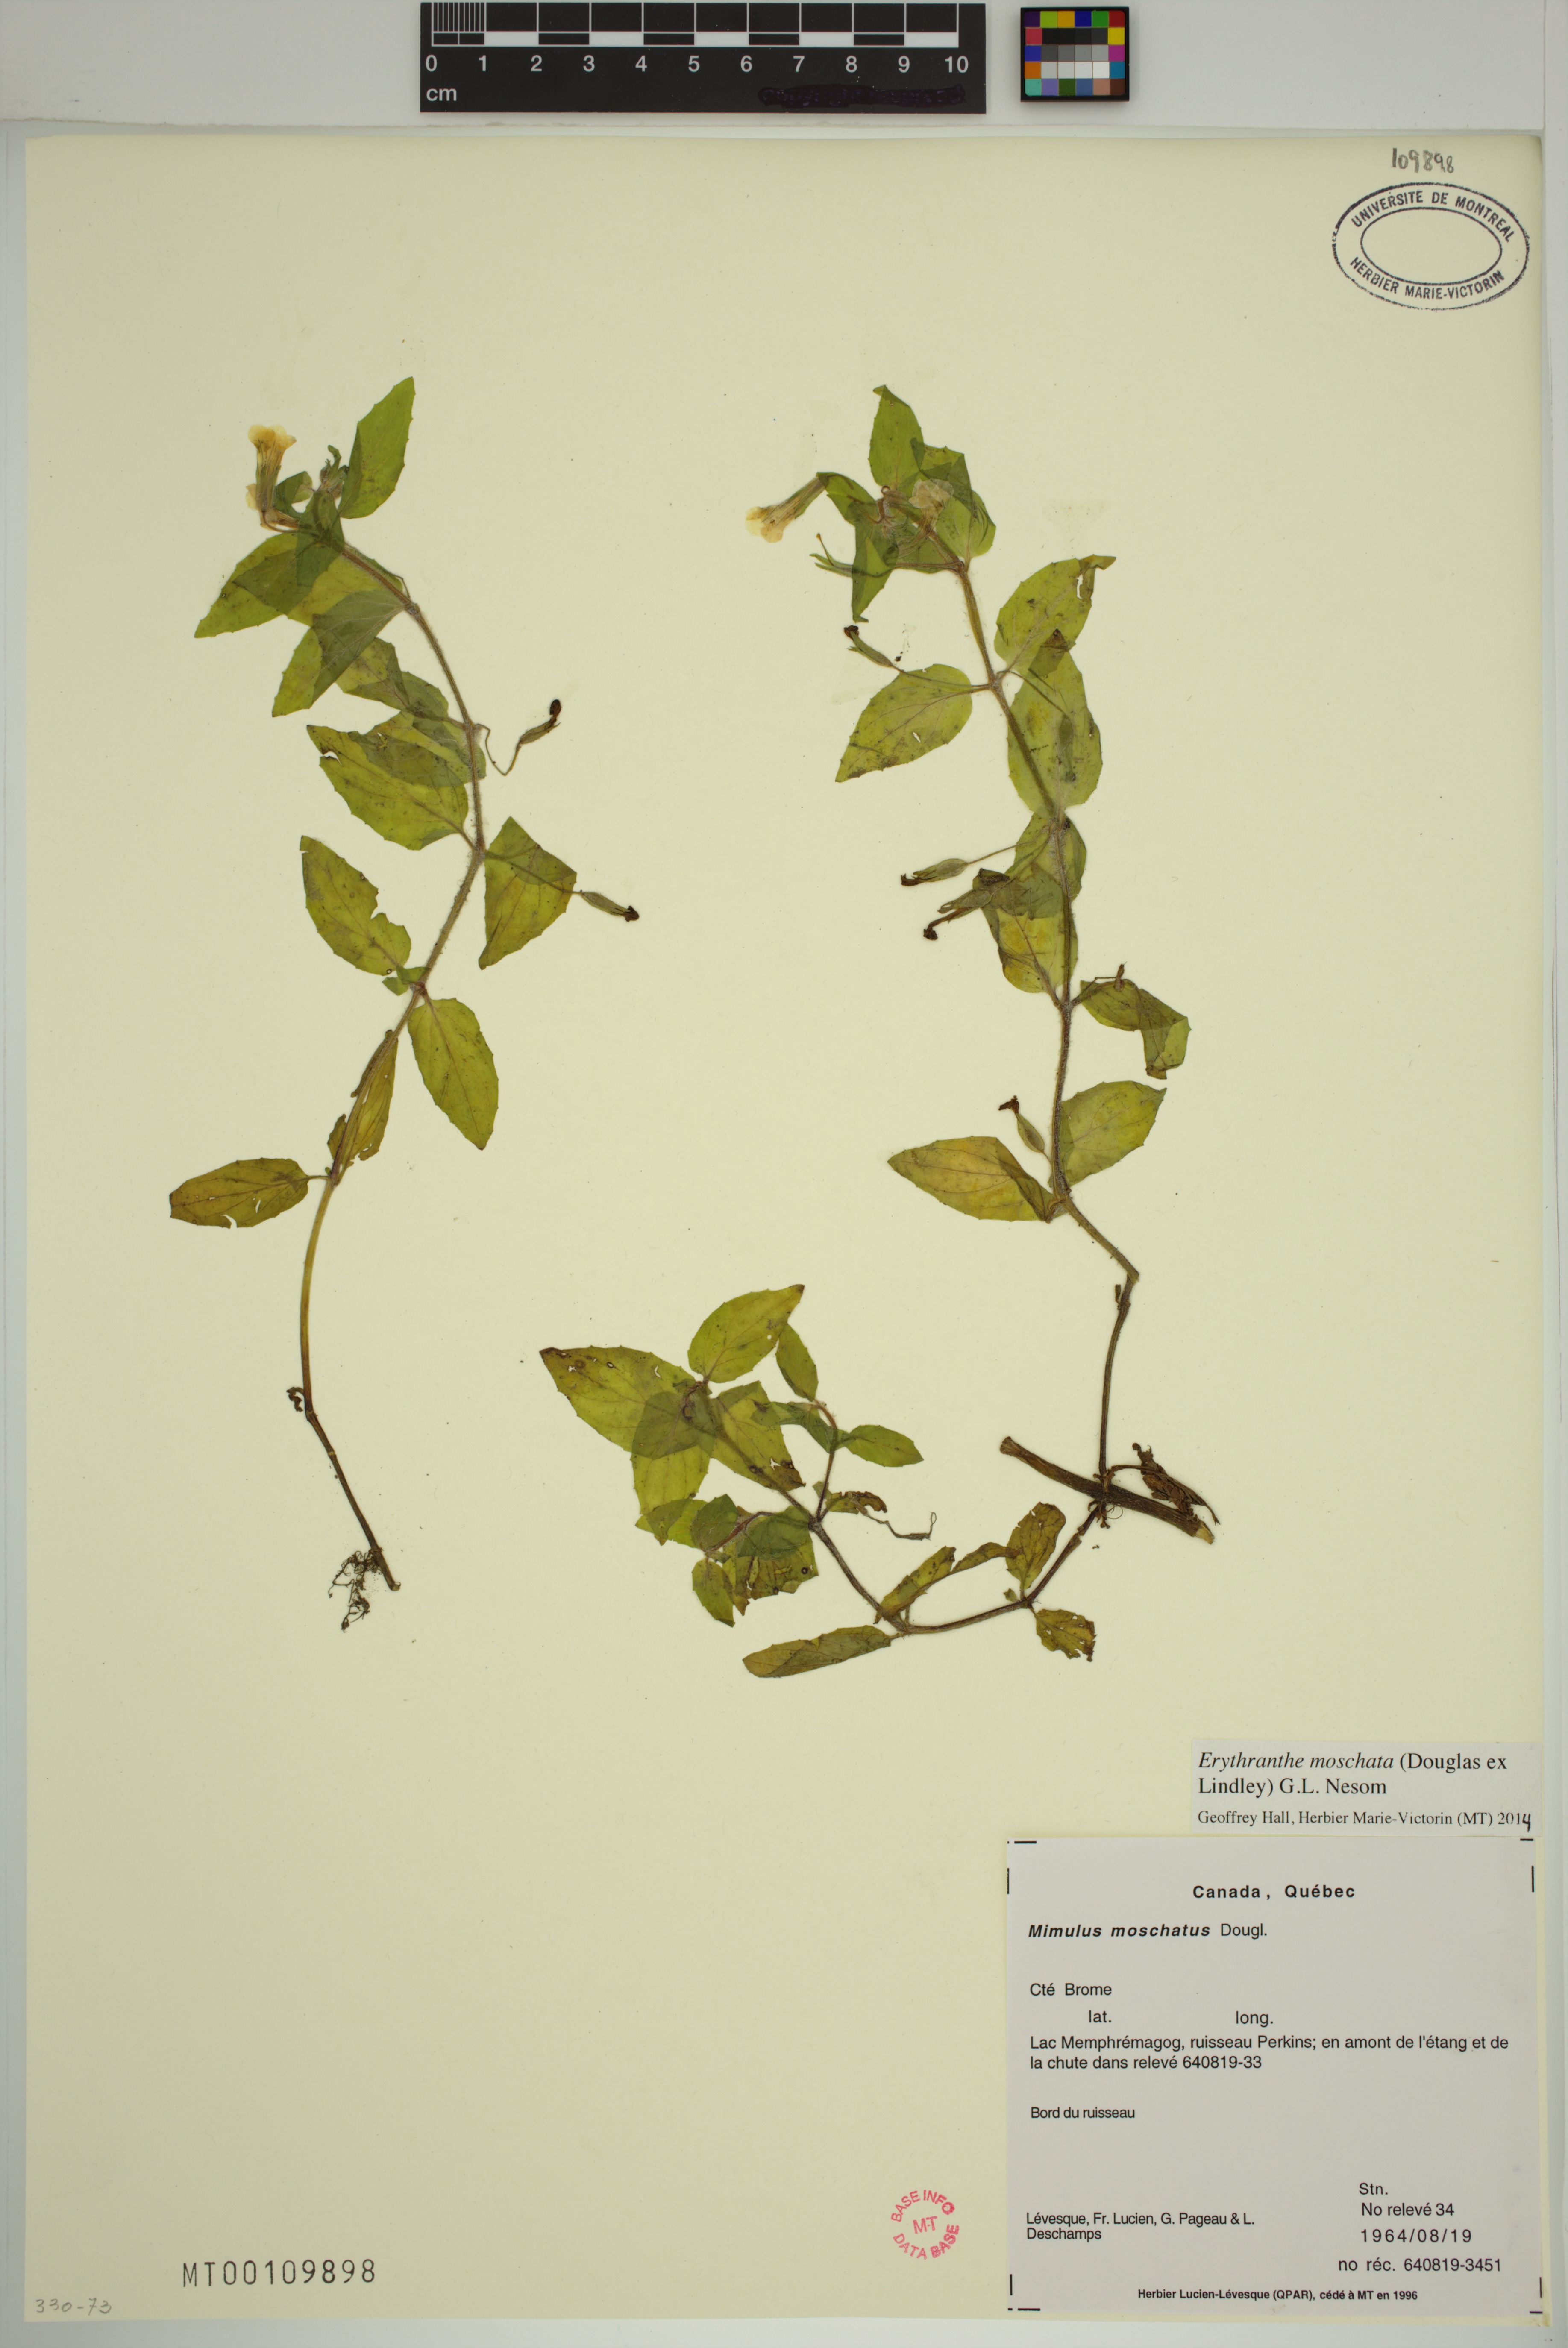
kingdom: Plantae
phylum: Tracheophyta
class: Magnoliopsida
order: Lamiales
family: Phrymaceae
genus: Erythranthe
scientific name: Erythranthe moschata
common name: Muskflower
